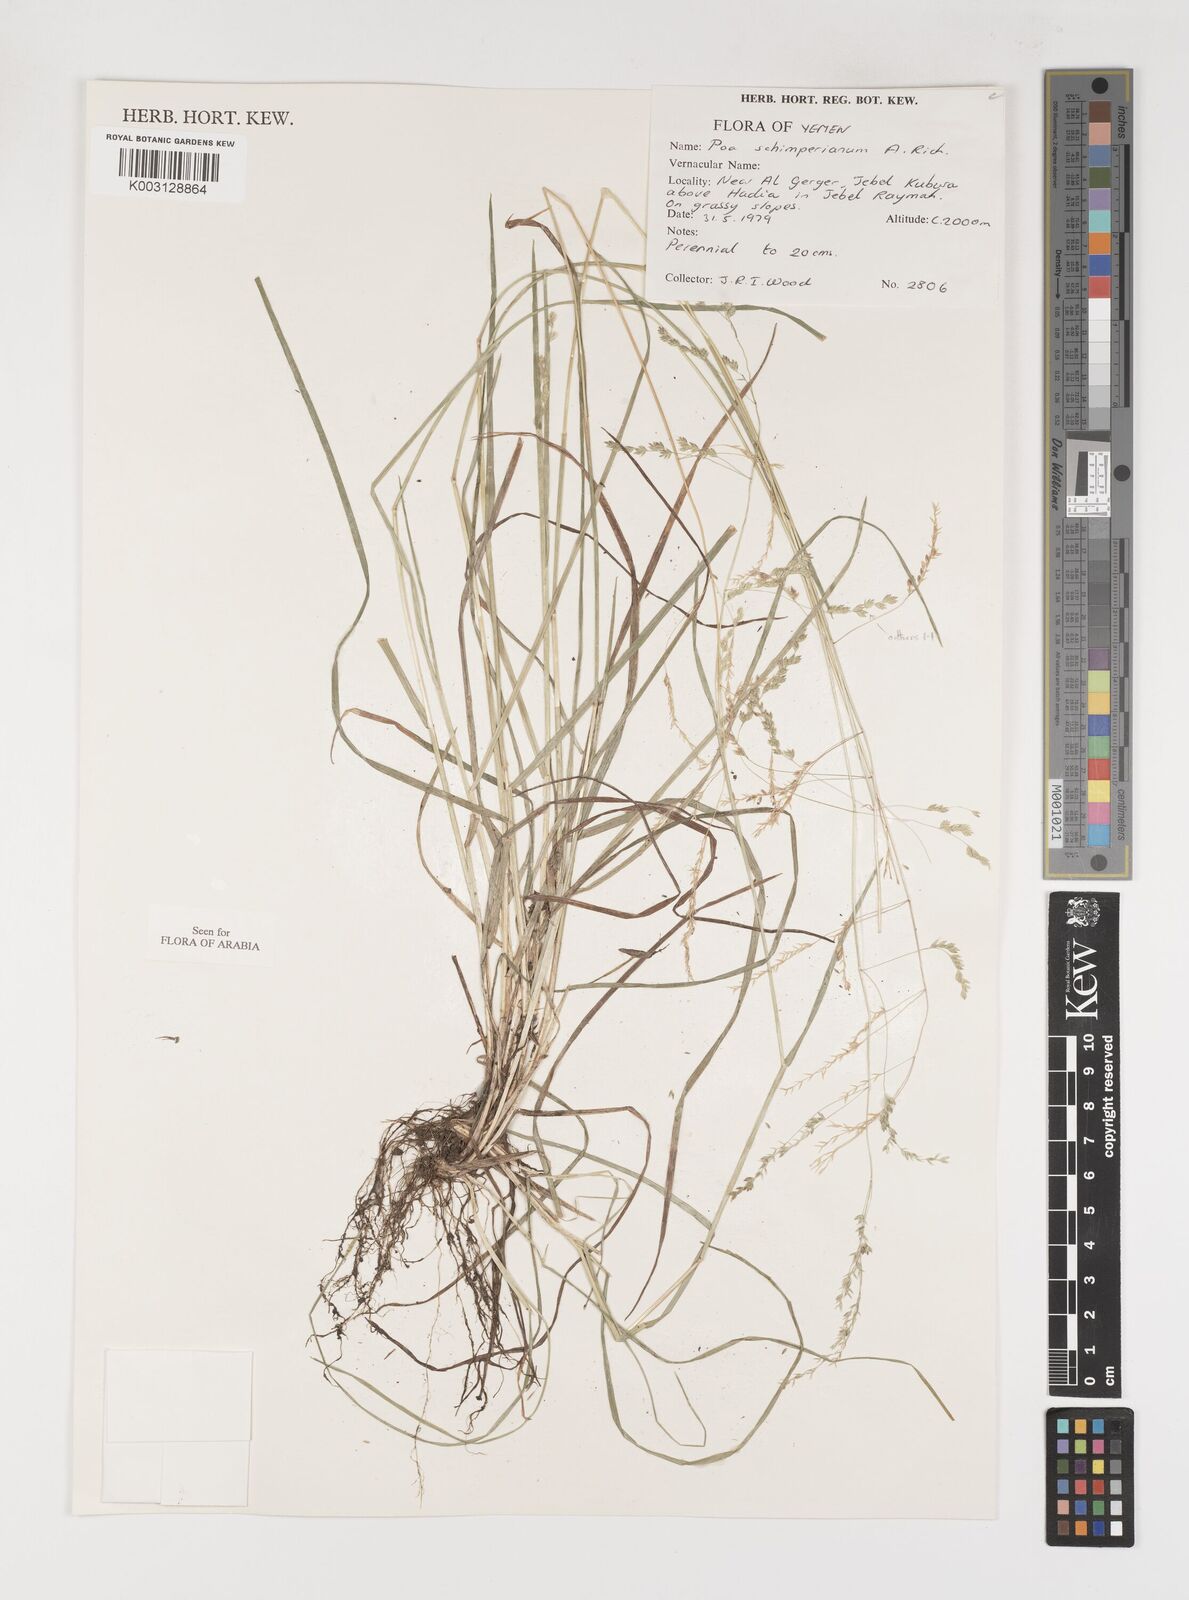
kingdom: Plantae
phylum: Tracheophyta
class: Liliopsida
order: Poales
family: Poaceae
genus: Poa
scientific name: Poa schimperiana
